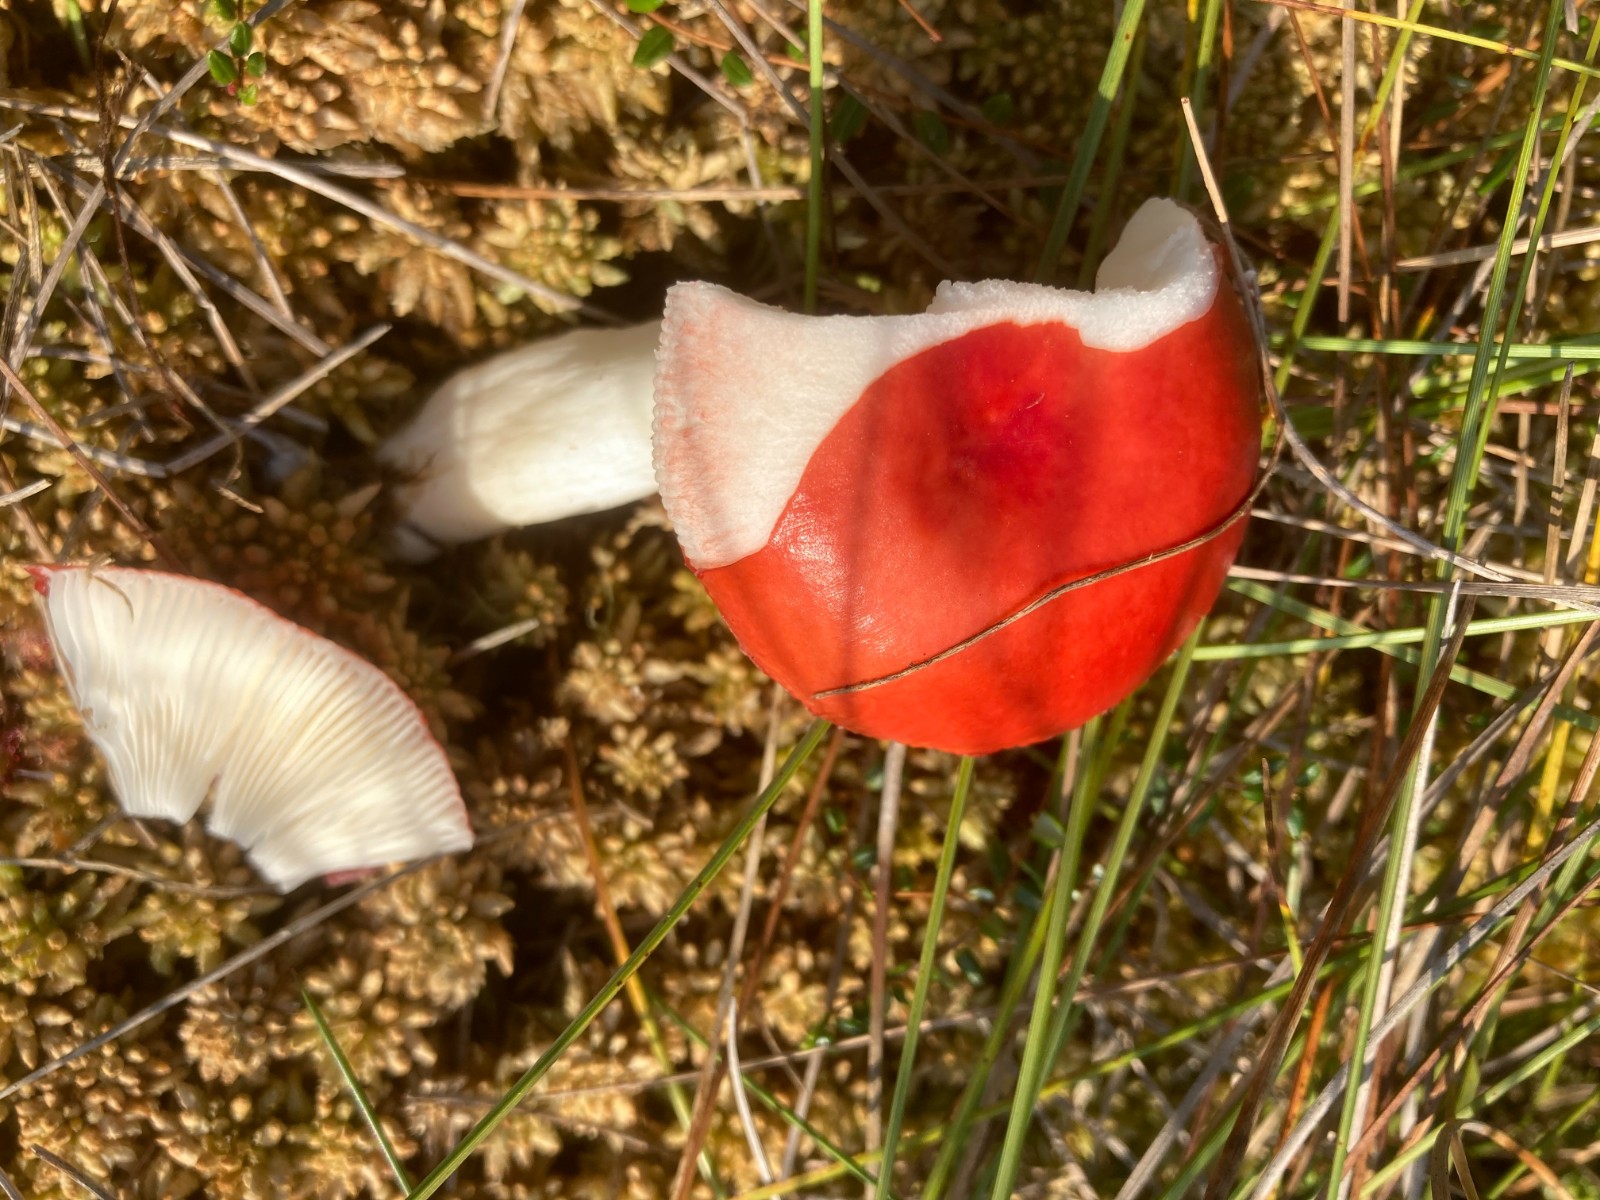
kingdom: Fungi
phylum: Basidiomycota
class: Agaricomycetes
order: Russulales
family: Russulaceae
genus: Russula
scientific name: Russula
